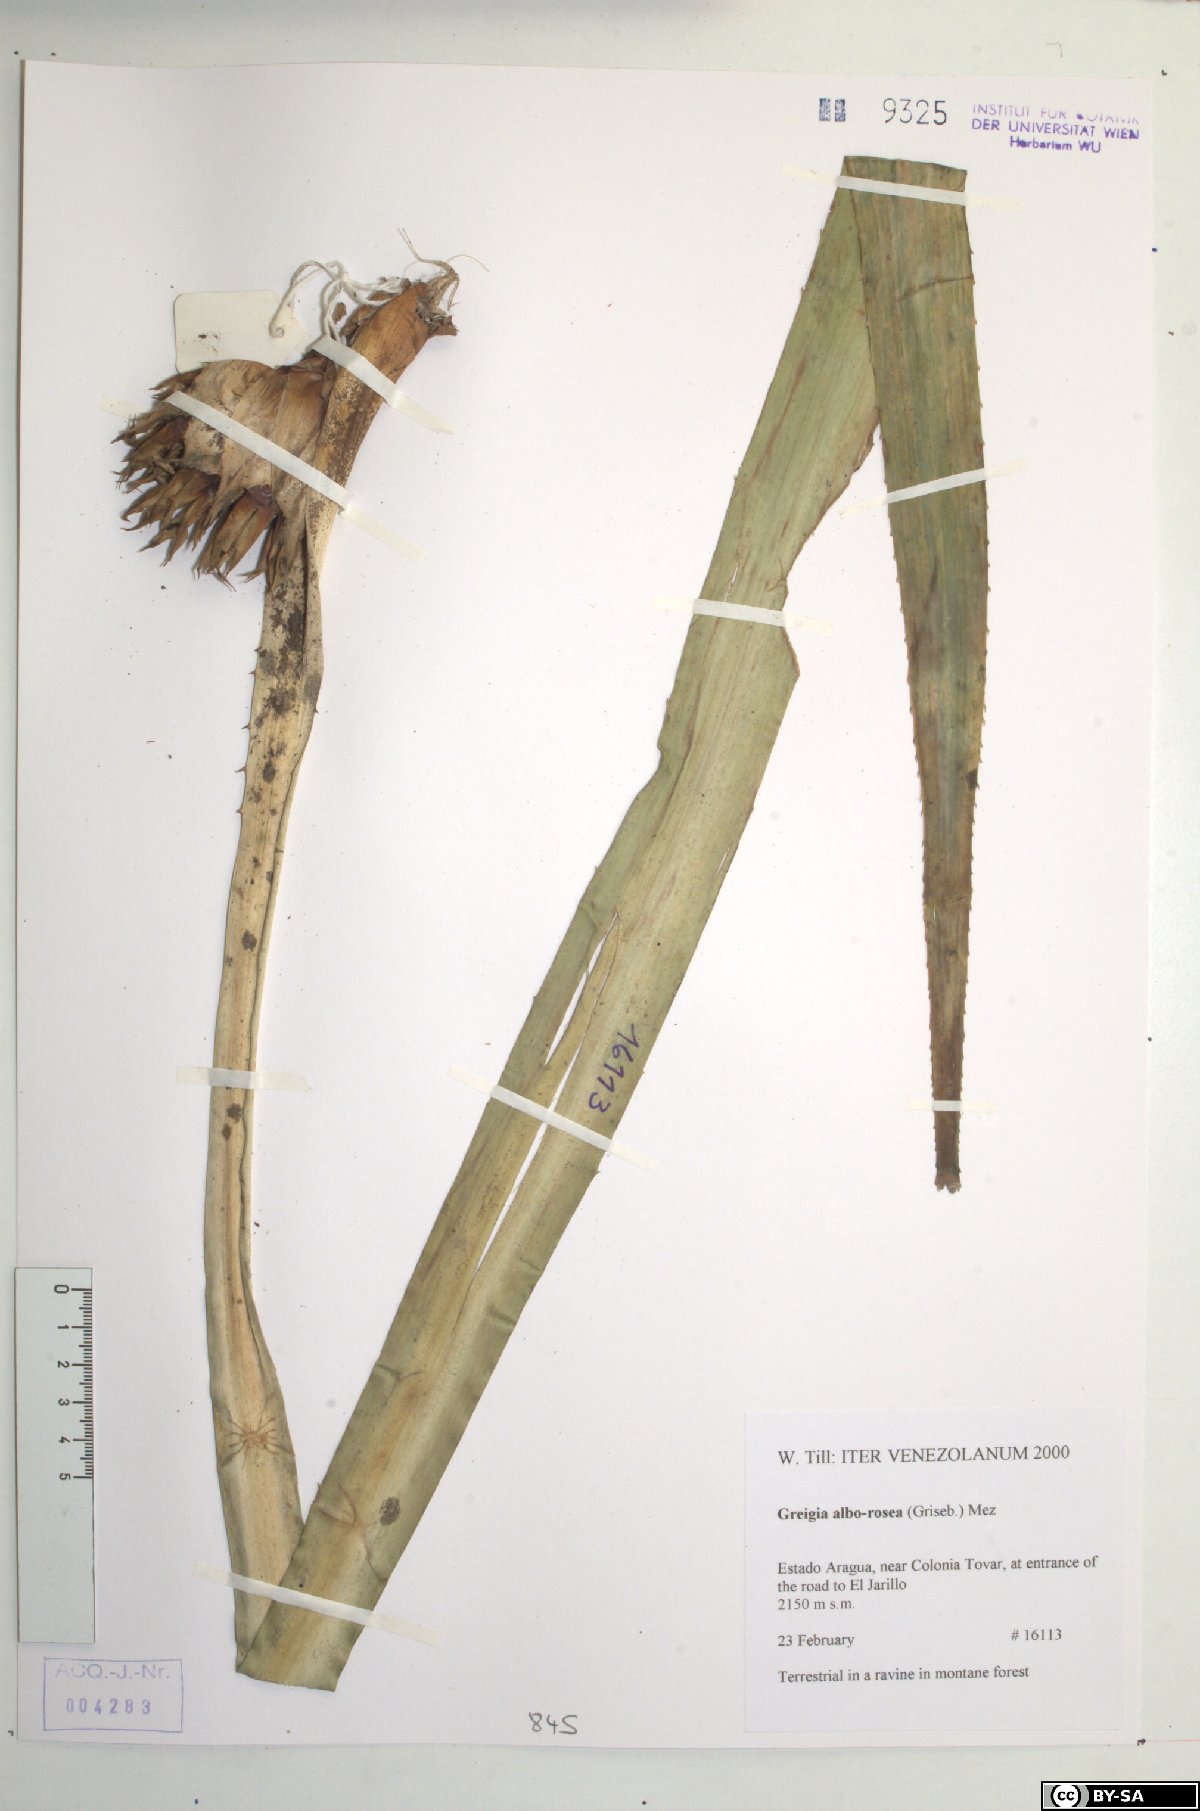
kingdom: Plantae
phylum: Tracheophyta
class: Liliopsida
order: Poales
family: Bromeliaceae
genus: Greigia
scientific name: Greigia alborosea
